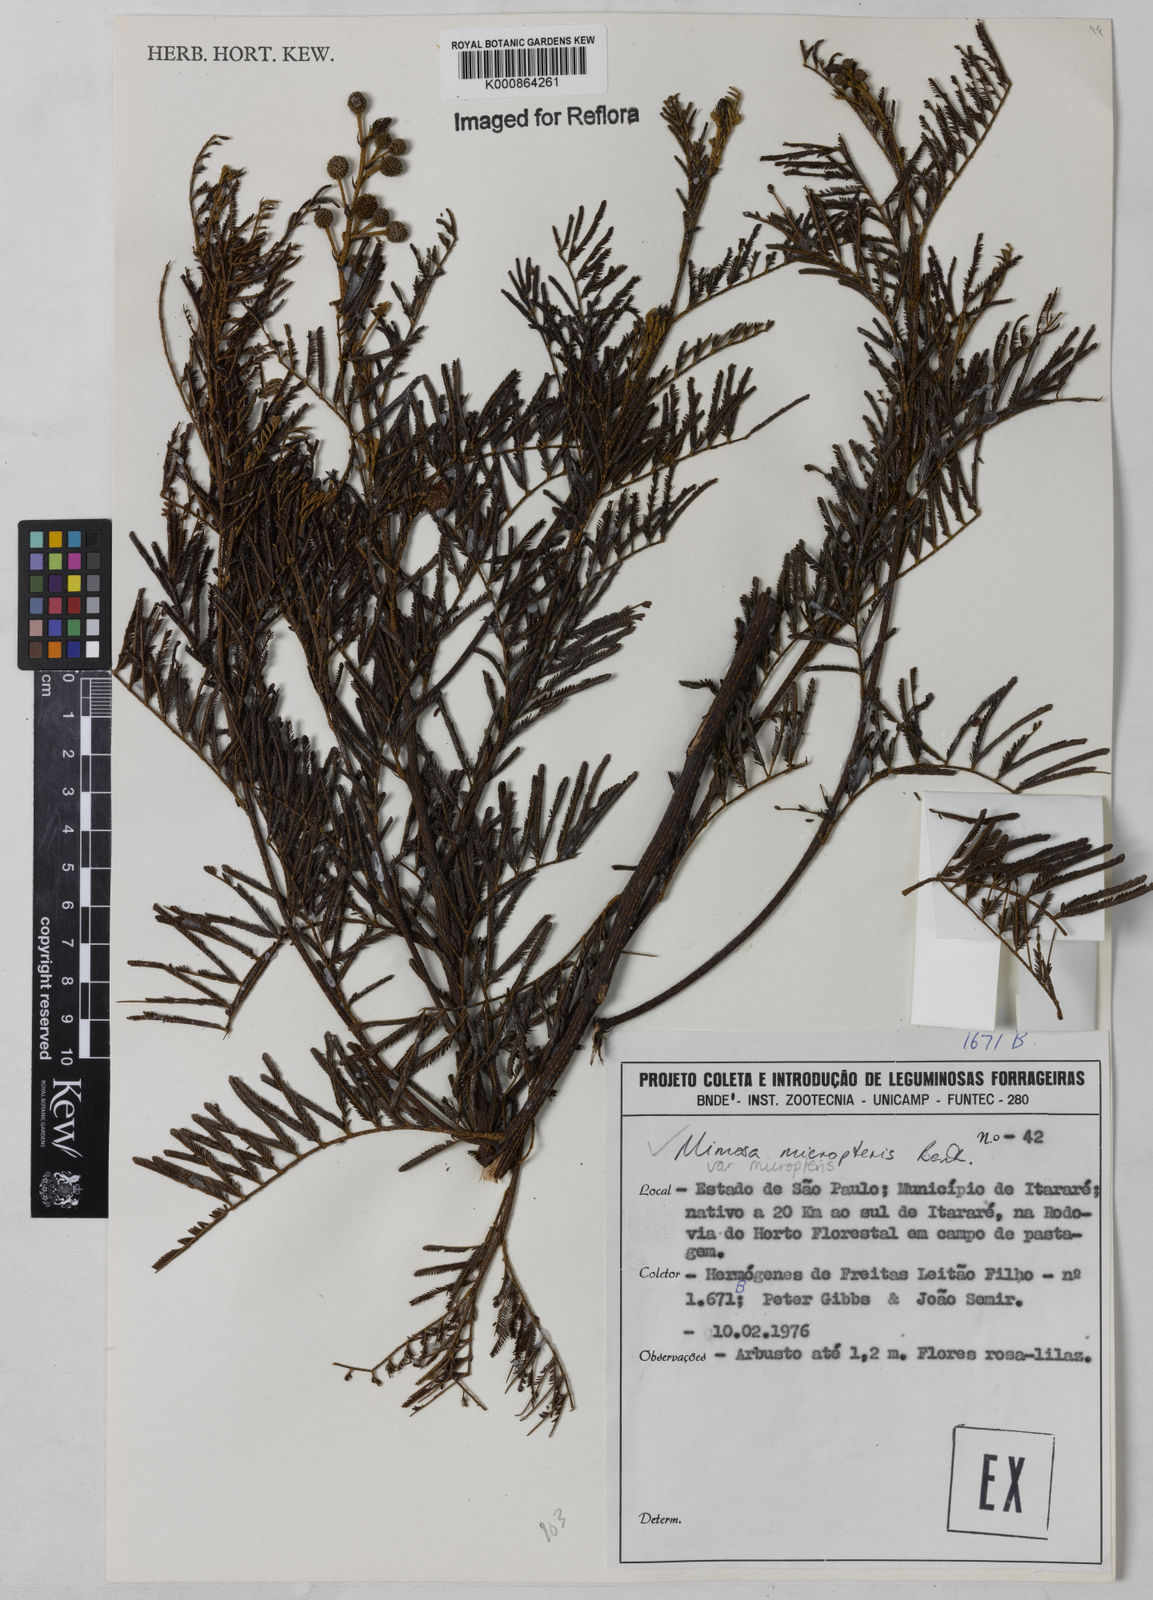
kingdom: Plantae
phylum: Tracheophyta
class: Magnoliopsida
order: Fabales
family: Fabaceae
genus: Mimosa
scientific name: Mimosa micropteris
